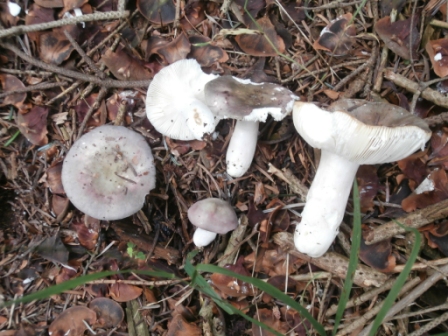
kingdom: Fungi
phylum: Basidiomycota
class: Agaricomycetes
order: Russulales
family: Russulaceae
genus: Russula
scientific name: Russula grisea
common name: grålig skørhat
